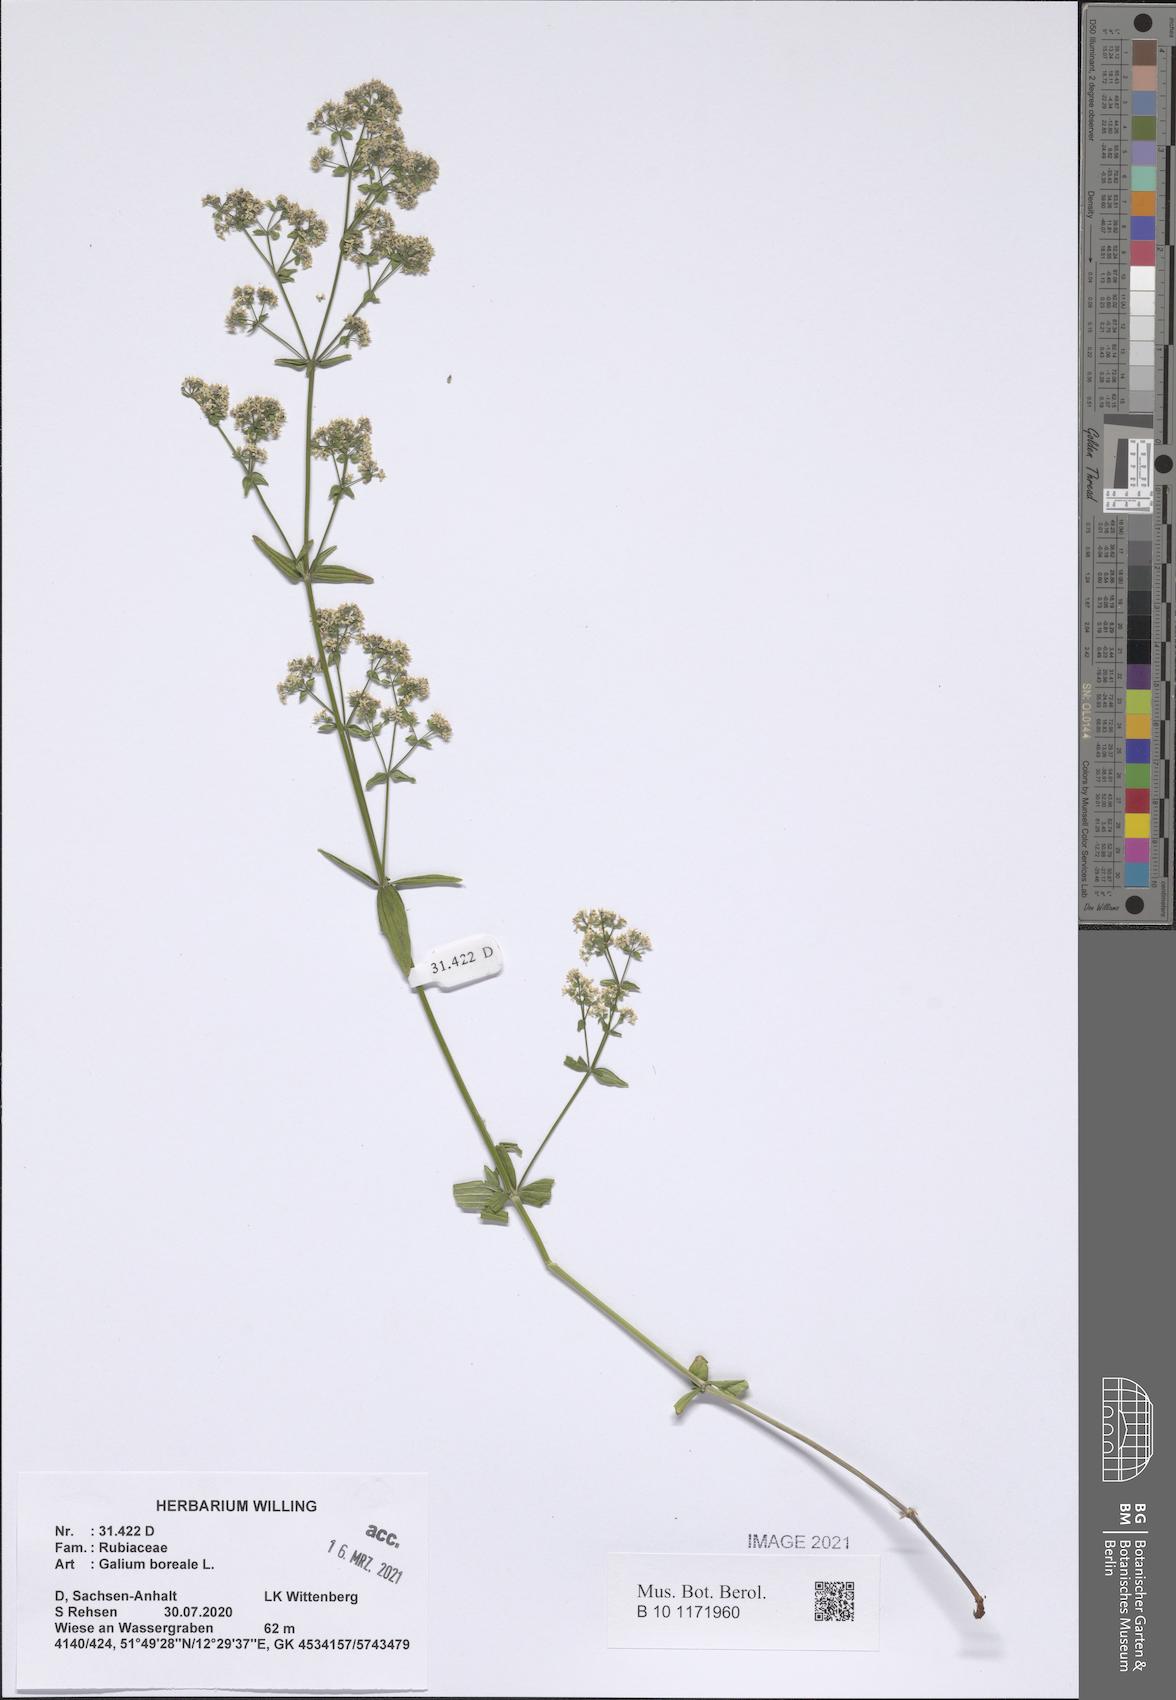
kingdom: Plantae
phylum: Tracheophyta
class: Magnoliopsida
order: Gentianales
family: Rubiaceae
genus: Galium
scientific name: Galium boreale
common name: Northern bedstraw
